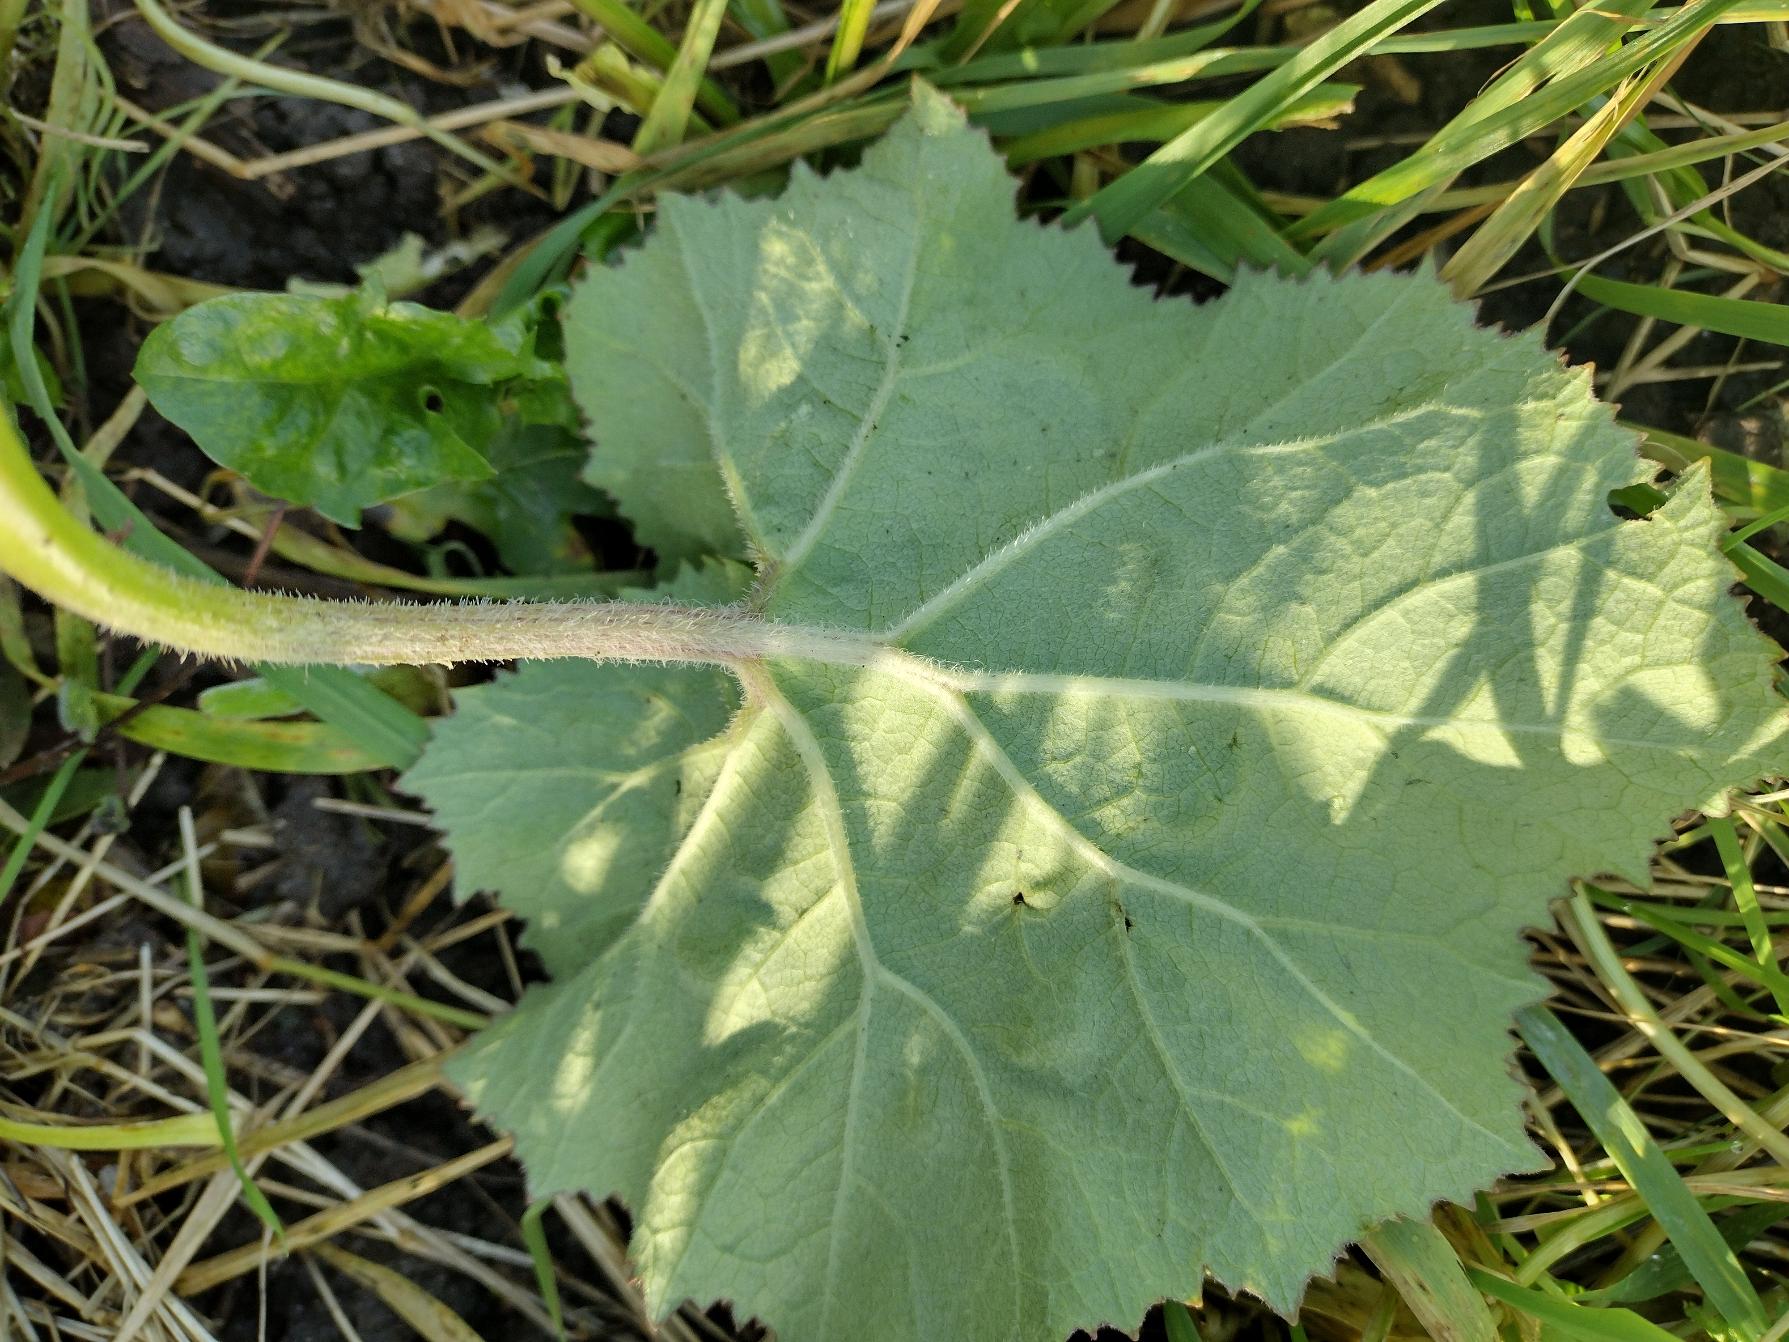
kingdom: Plantae
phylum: Tracheophyta
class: Magnoliopsida
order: Asterales
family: Asteraceae
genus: Petasites
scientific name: Petasites albus
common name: Hvid hestehov
